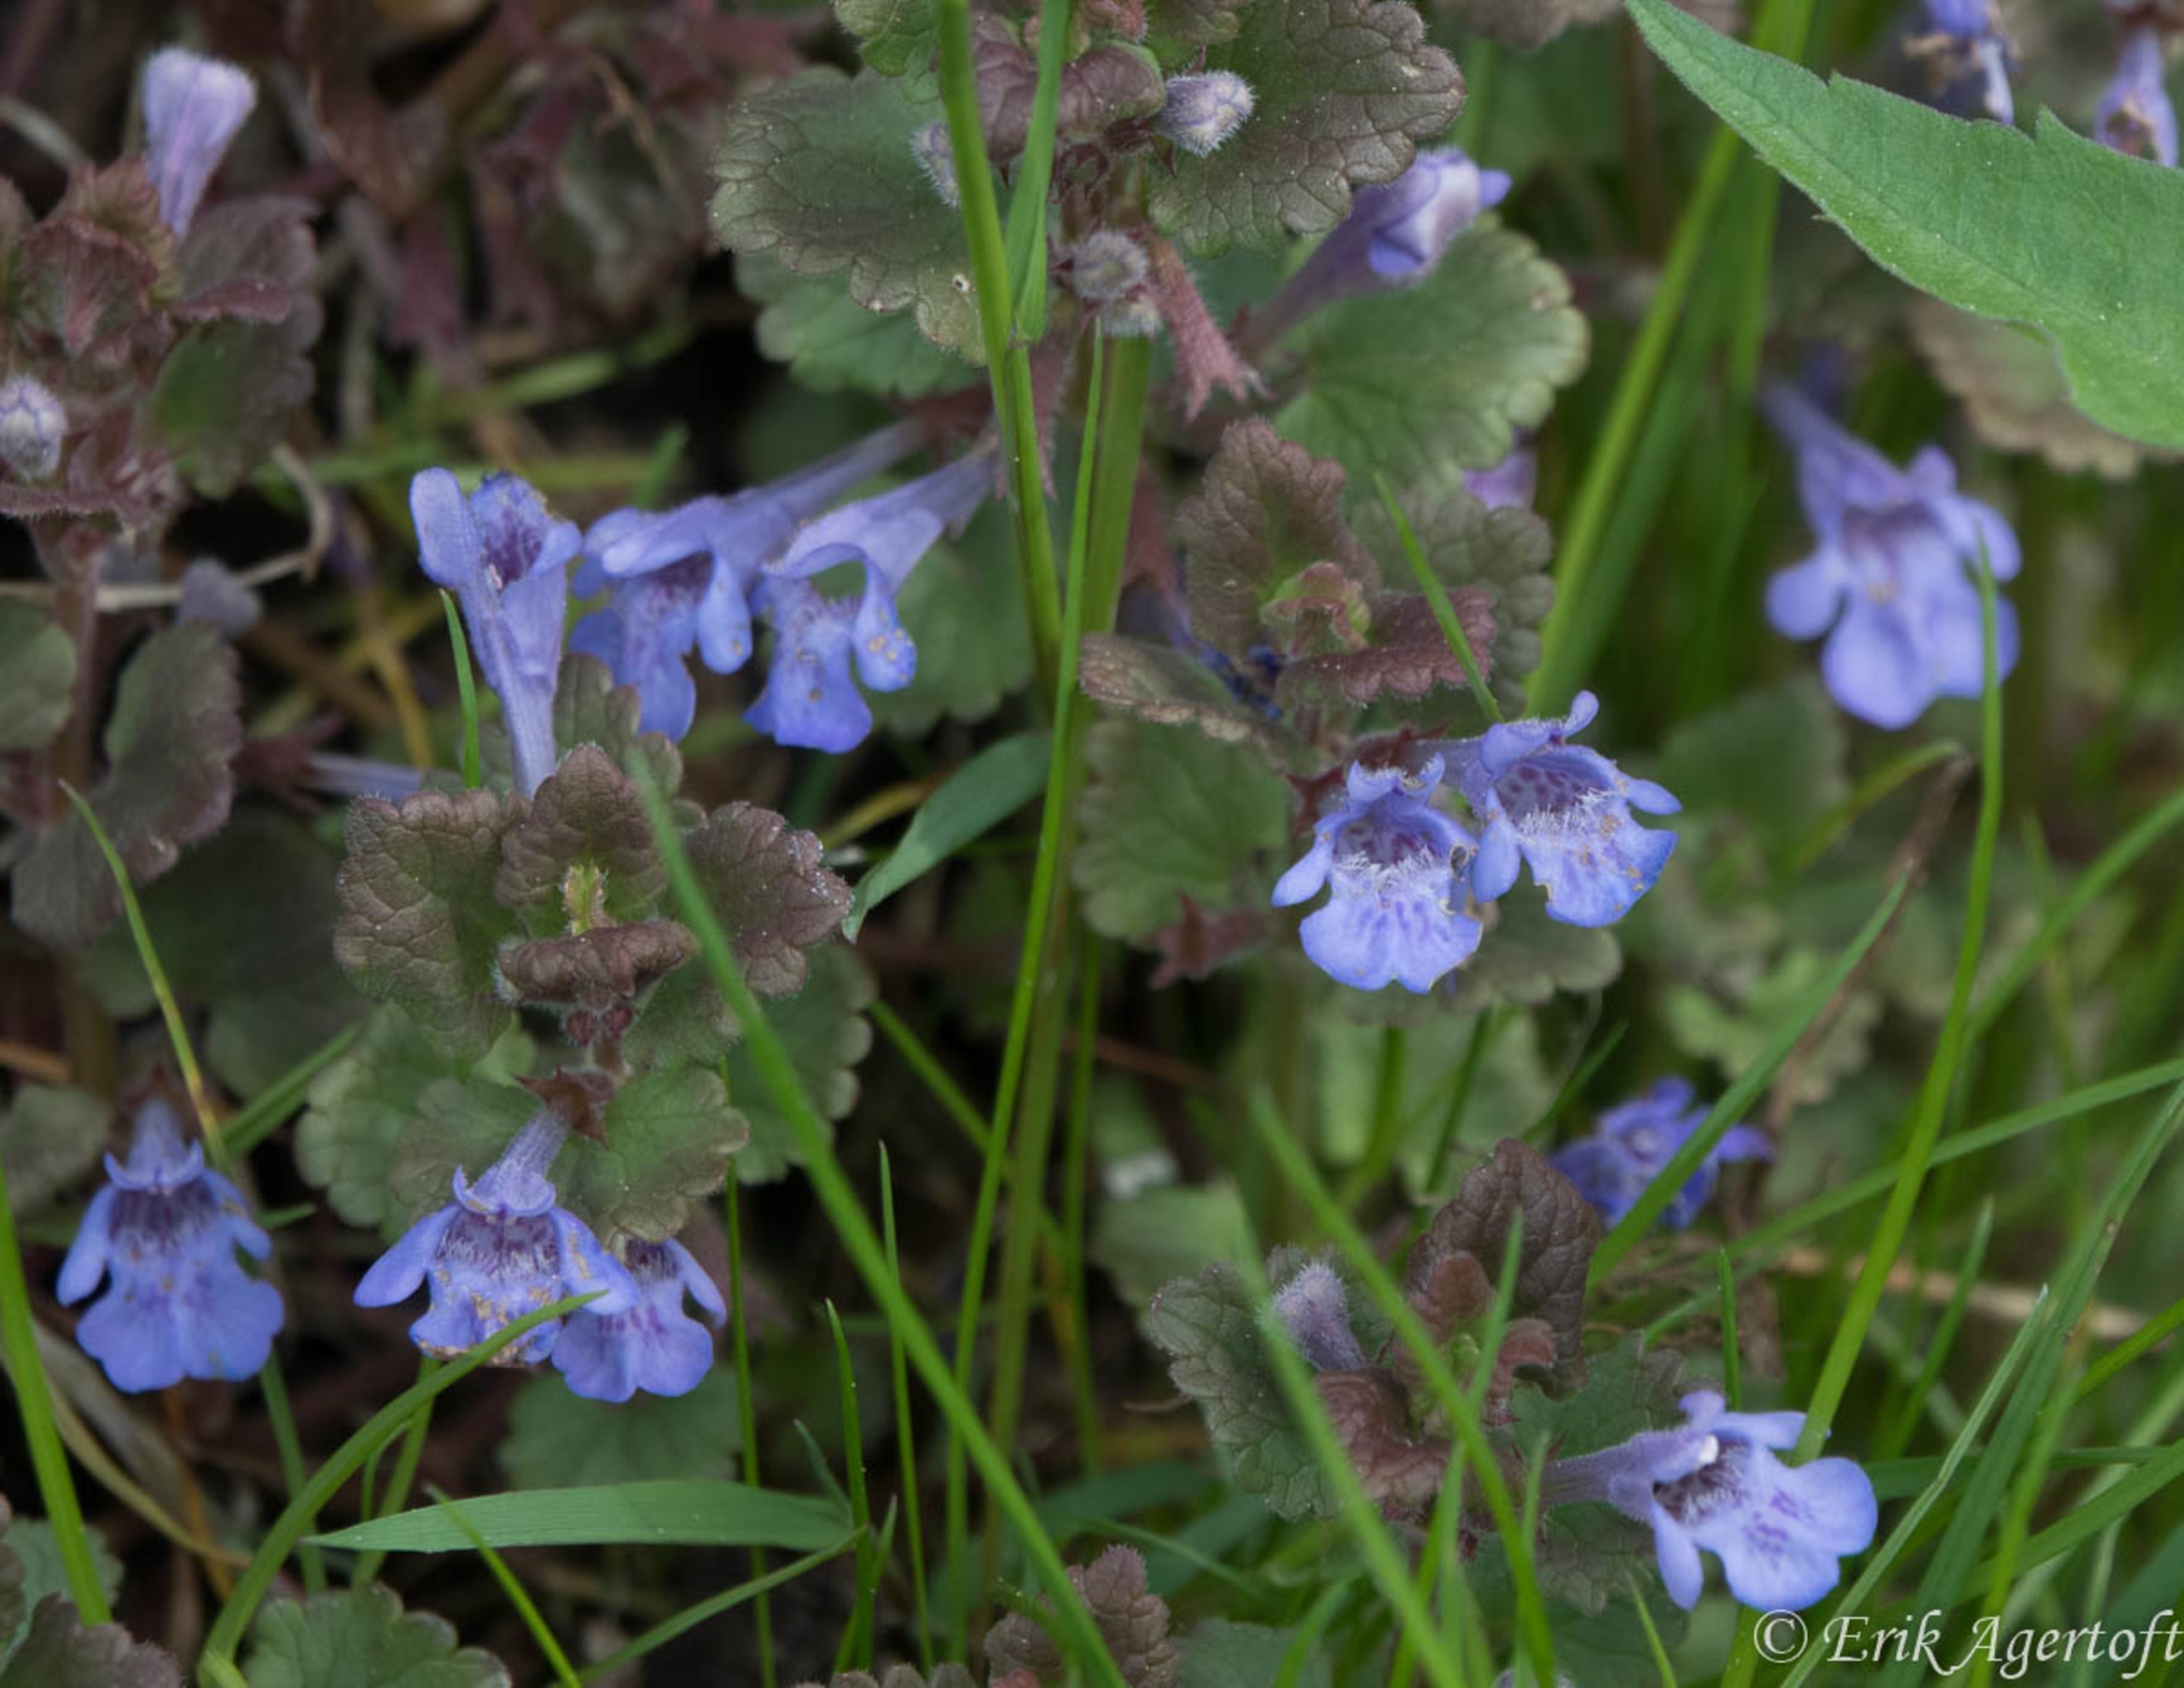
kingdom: Plantae
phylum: Tracheophyta
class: Magnoliopsida
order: Lamiales
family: Lamiaceae
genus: Glechoma
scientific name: Glechoma hederacea
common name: Korsknap
